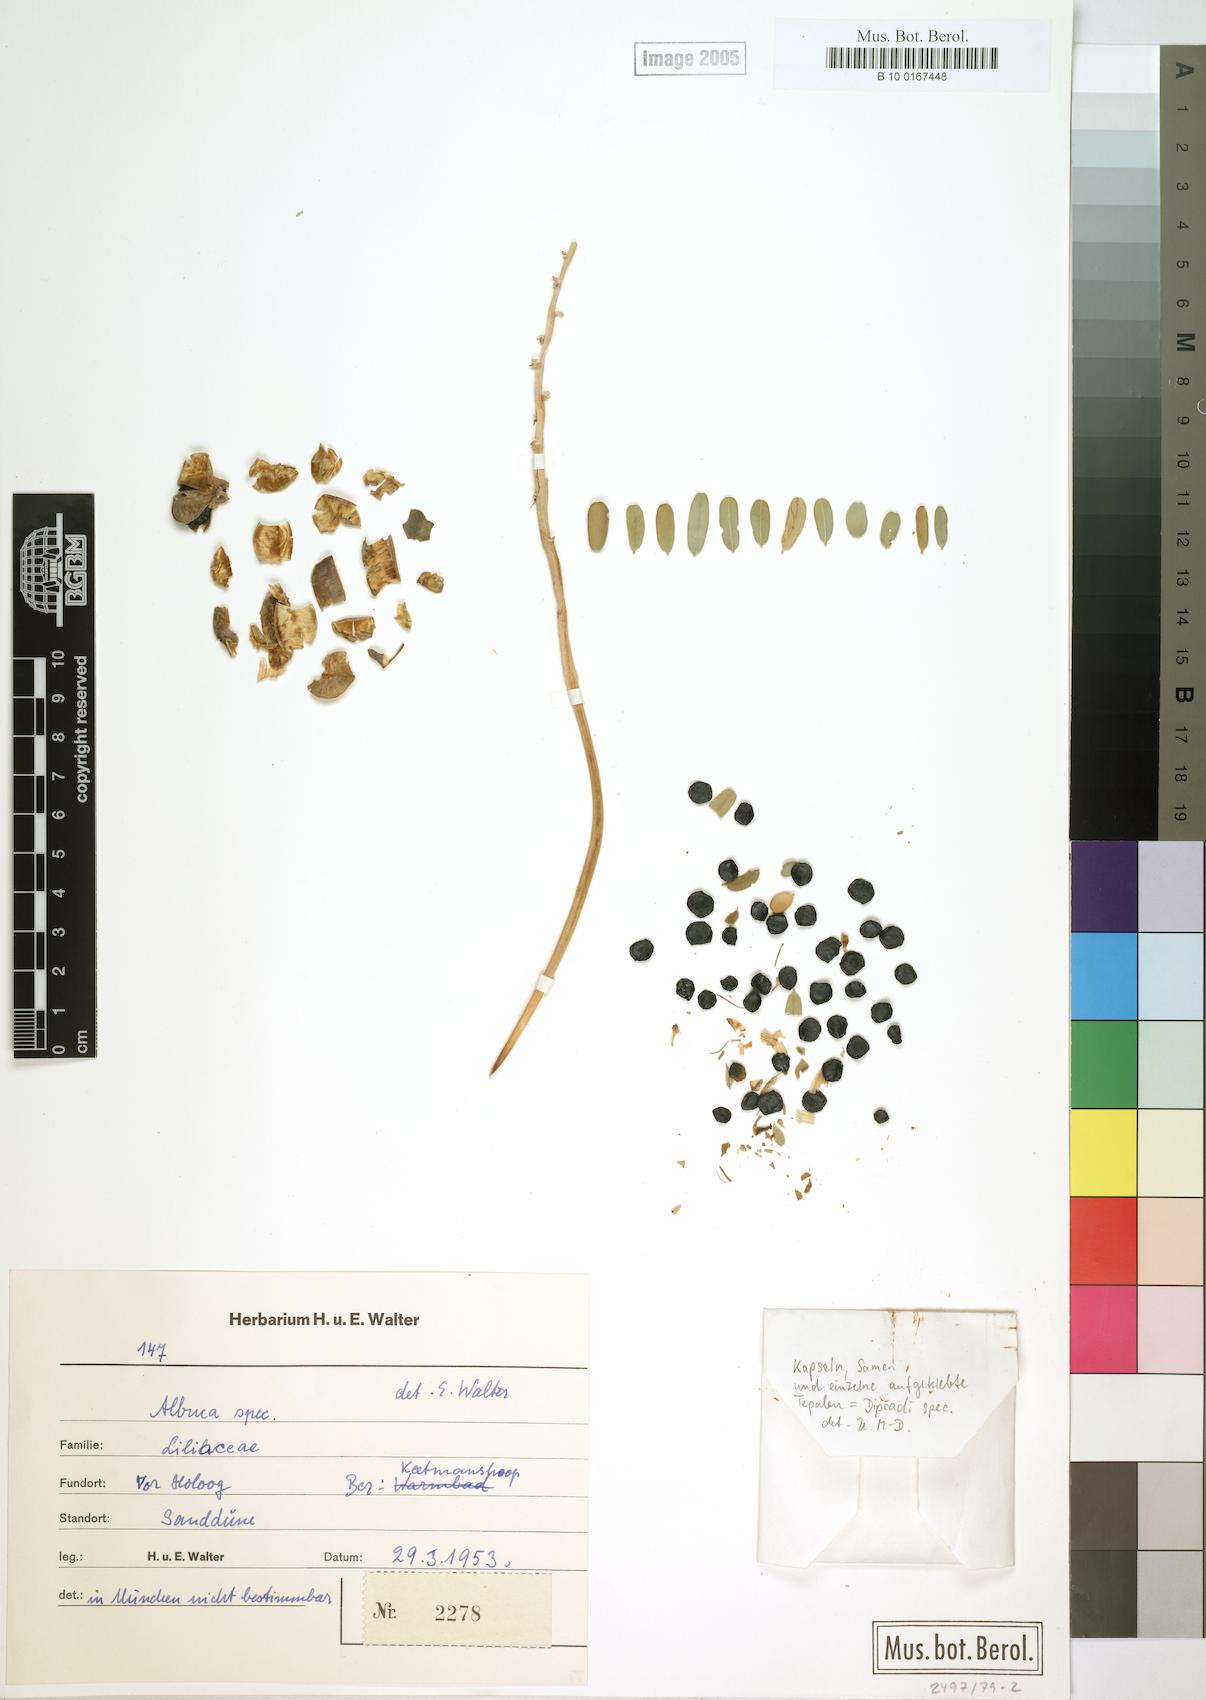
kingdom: Plantae
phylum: Tracheophyta
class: Liliopsida
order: Asparagales
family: Asparagaceae
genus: Albuca
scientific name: Albuca
